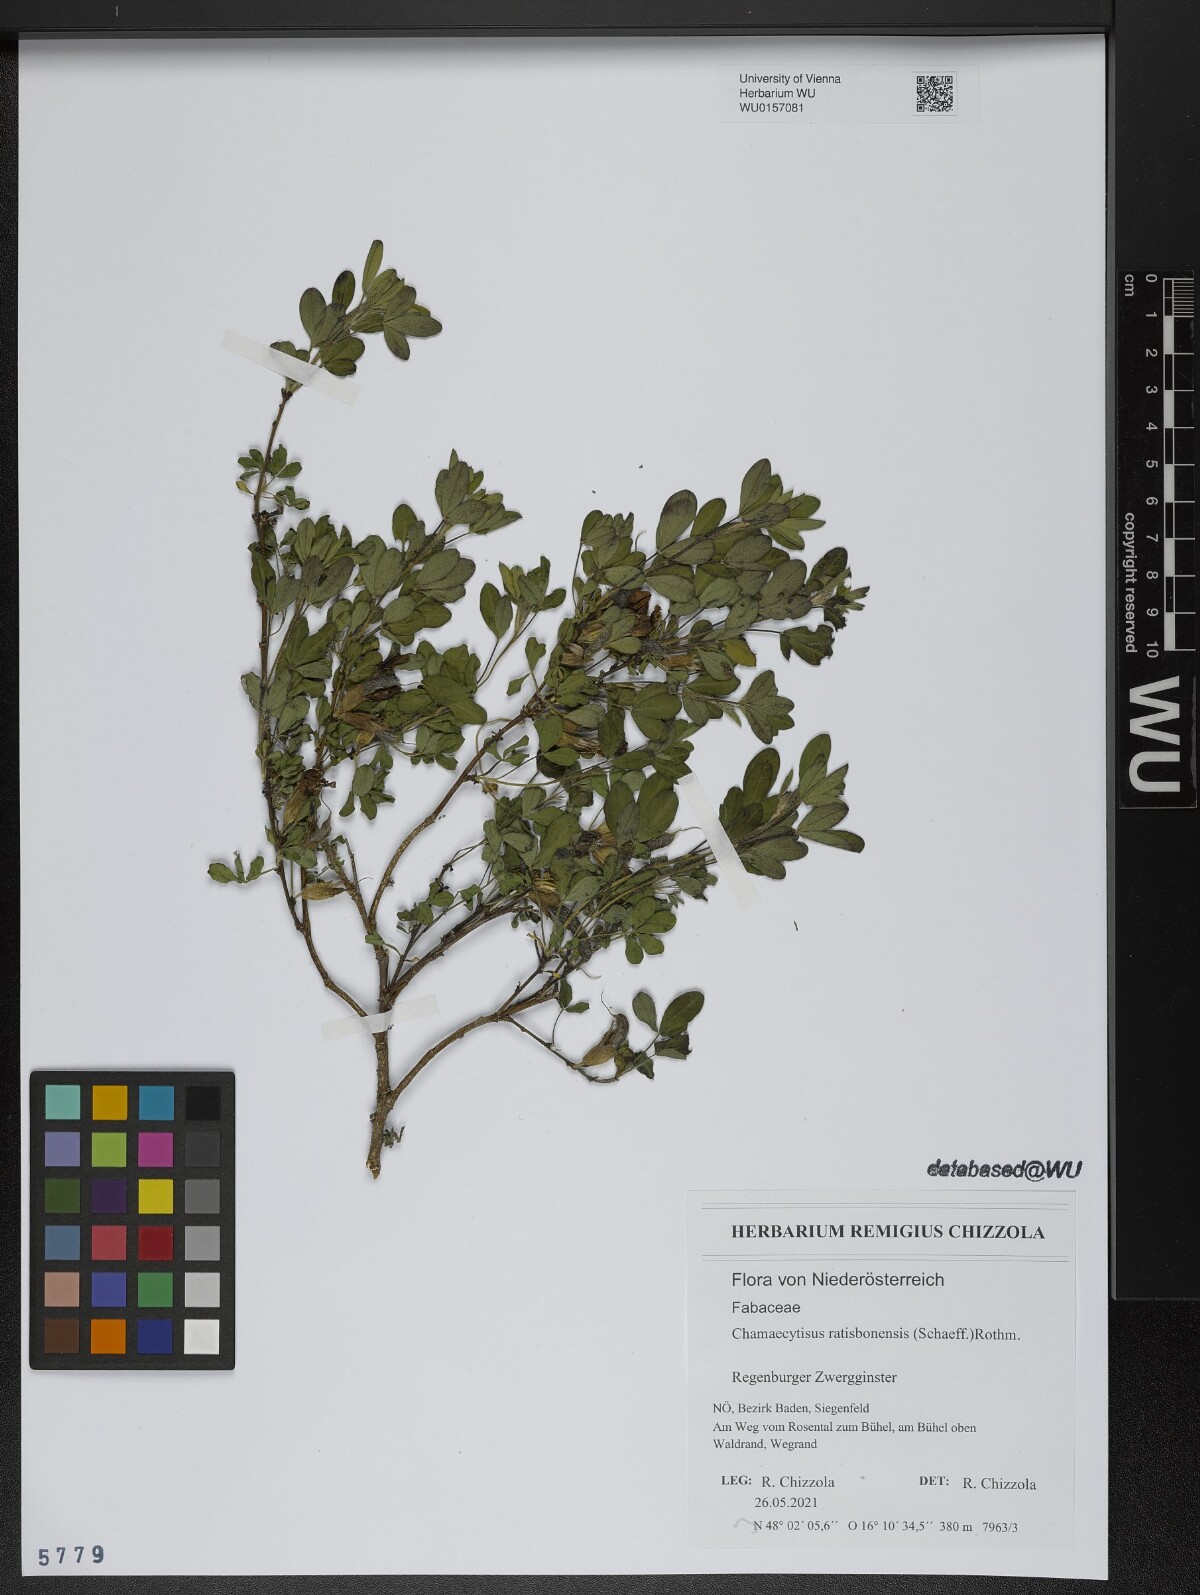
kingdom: Plantae
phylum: Tracheophyta
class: Magnoliopsida
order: Fabales
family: Fabaceae
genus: Chamaecytisus
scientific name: Chamaecytisus ratisbonensis
